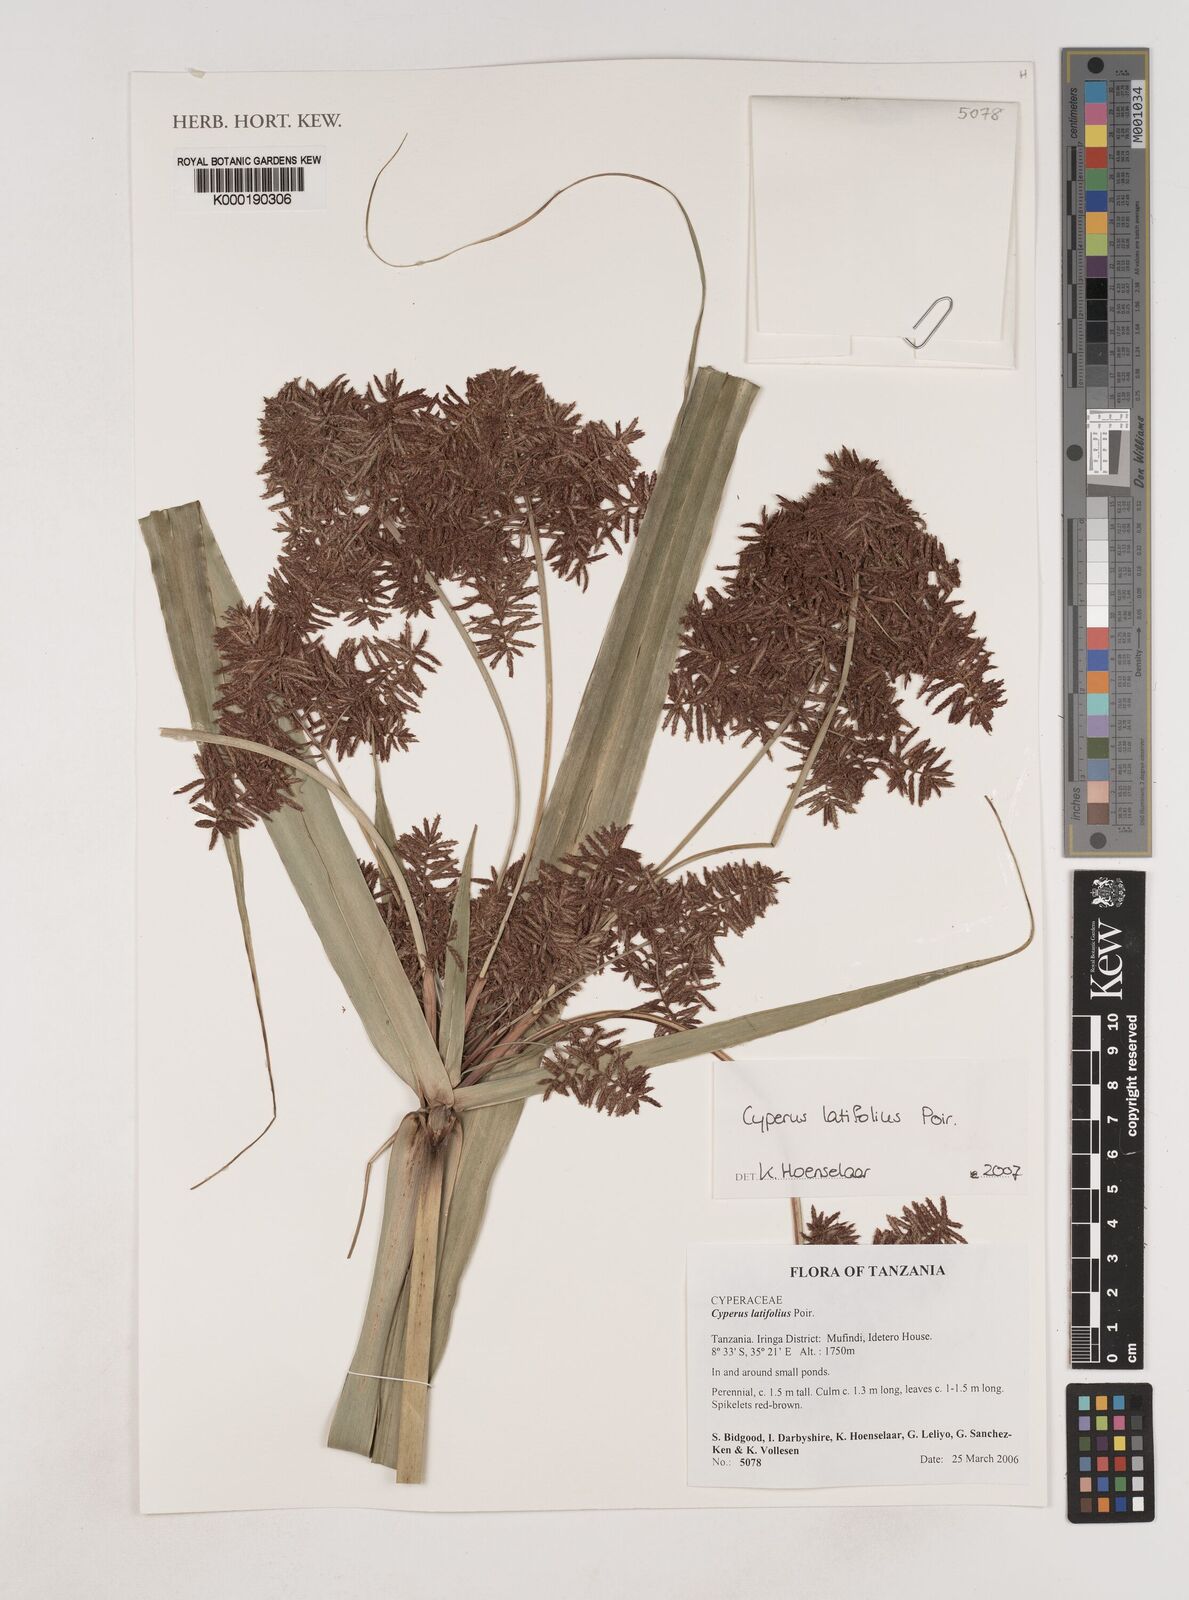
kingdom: Plantae
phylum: Tracheophyta
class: Liliopsida
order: Poales
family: Cyperaceae
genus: Cyperus
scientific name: Cyperus latifolius
